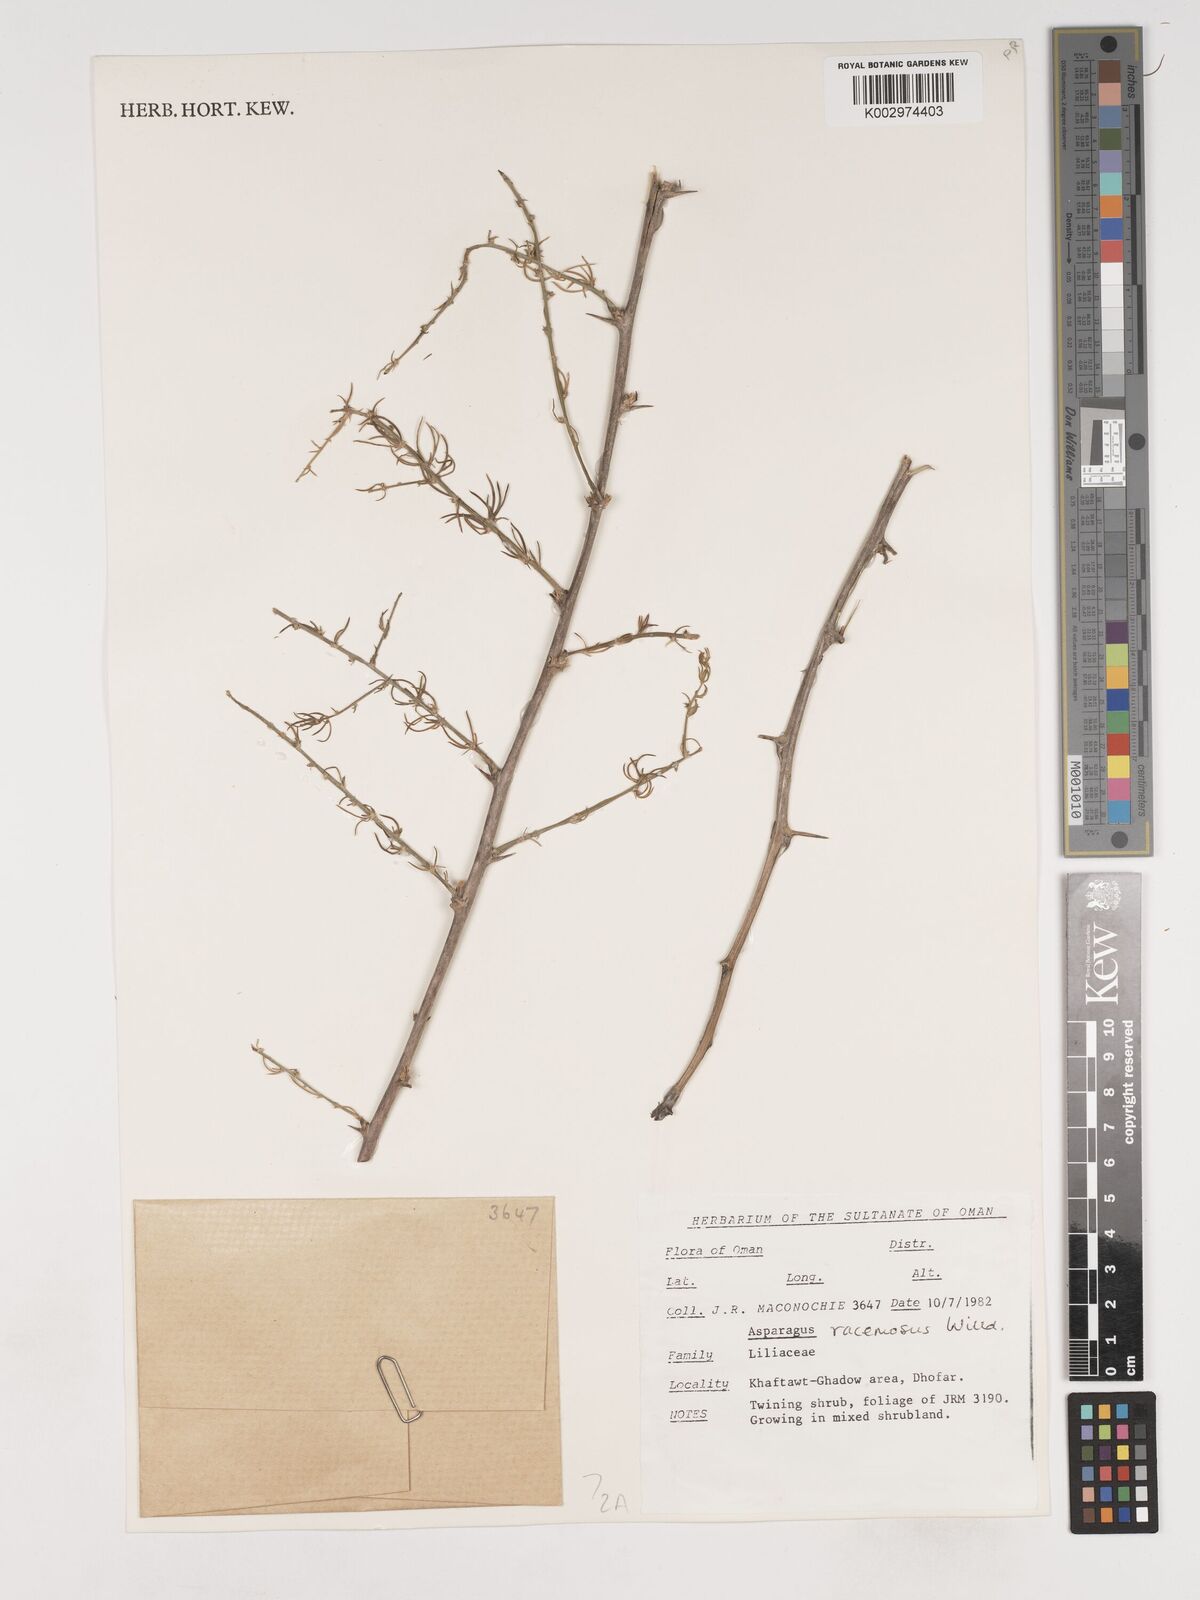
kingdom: Plantae
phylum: Tracheophyta
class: Liliopsida
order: Asparagales
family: Asparagaceae
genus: Asparagus
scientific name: Asparagus racemosus
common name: Asparagus-fern
